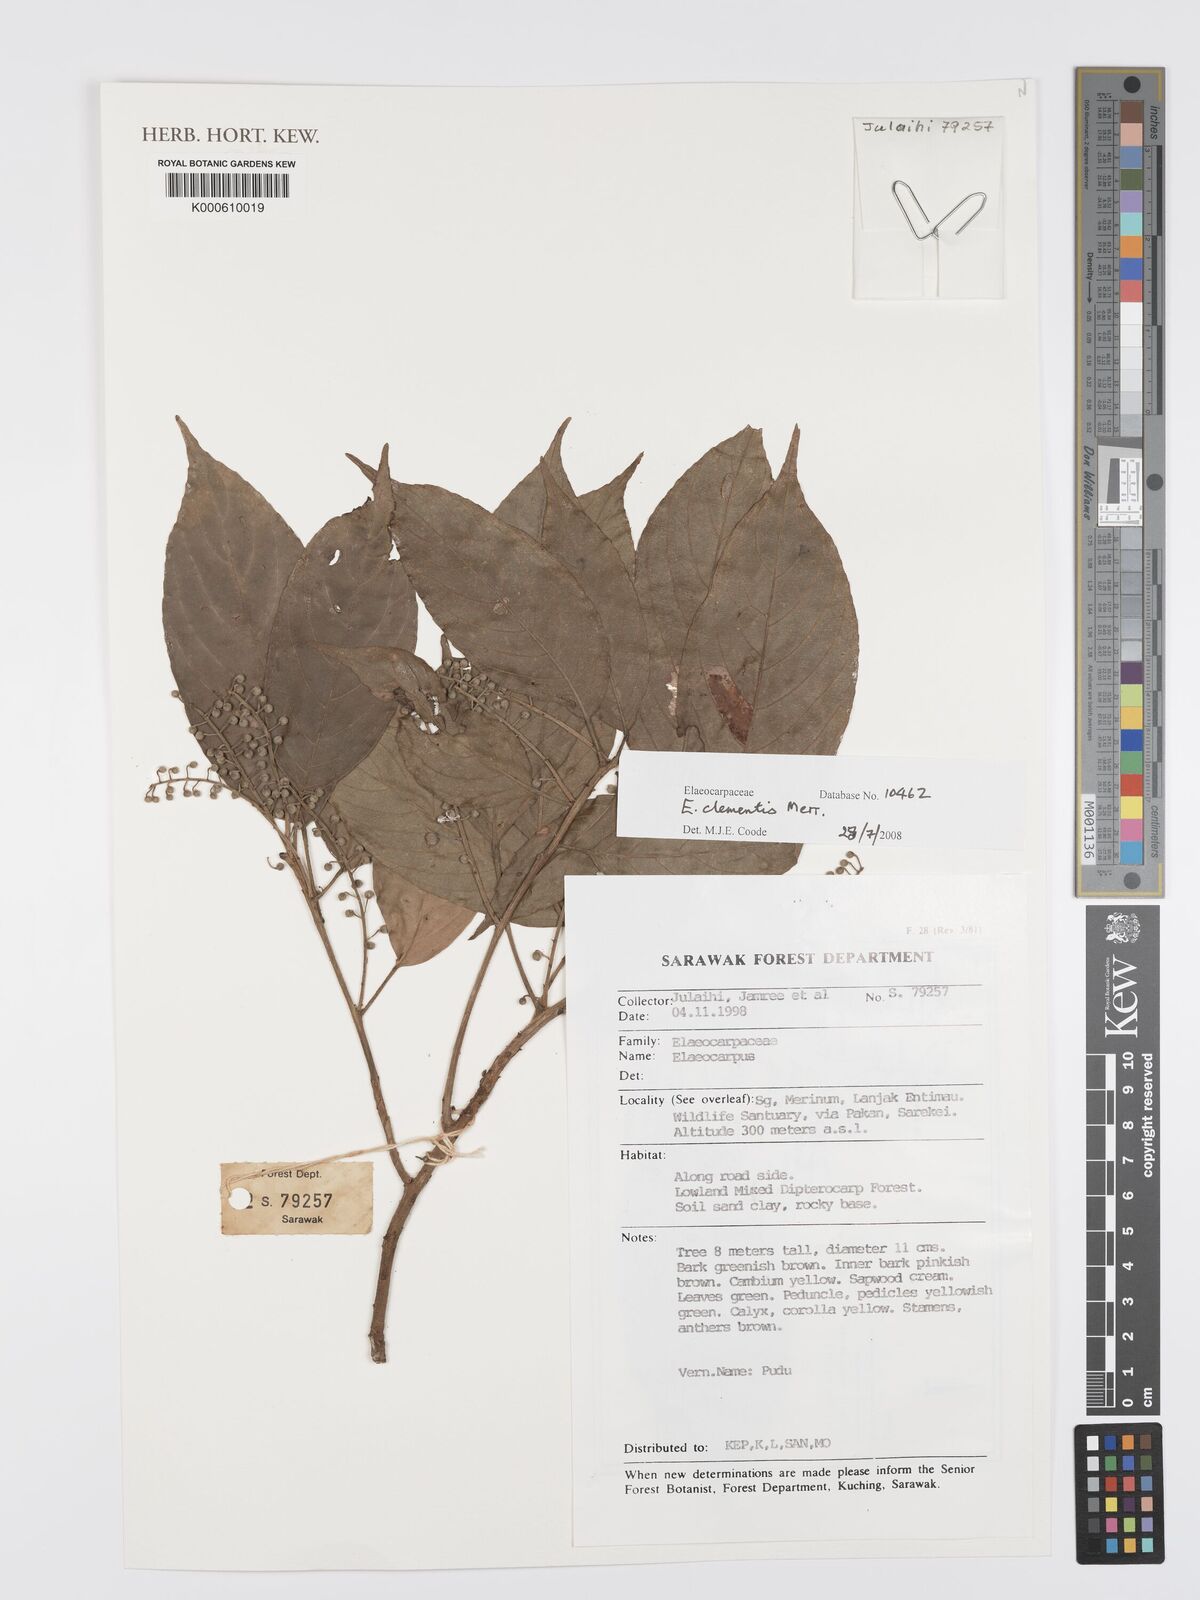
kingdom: Plantae
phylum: Tracheophyta
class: Magnoliopsida
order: Oxalidales
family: Elaeocarpaceae
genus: Elaeocarpus
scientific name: Elaeocarpus clementis
